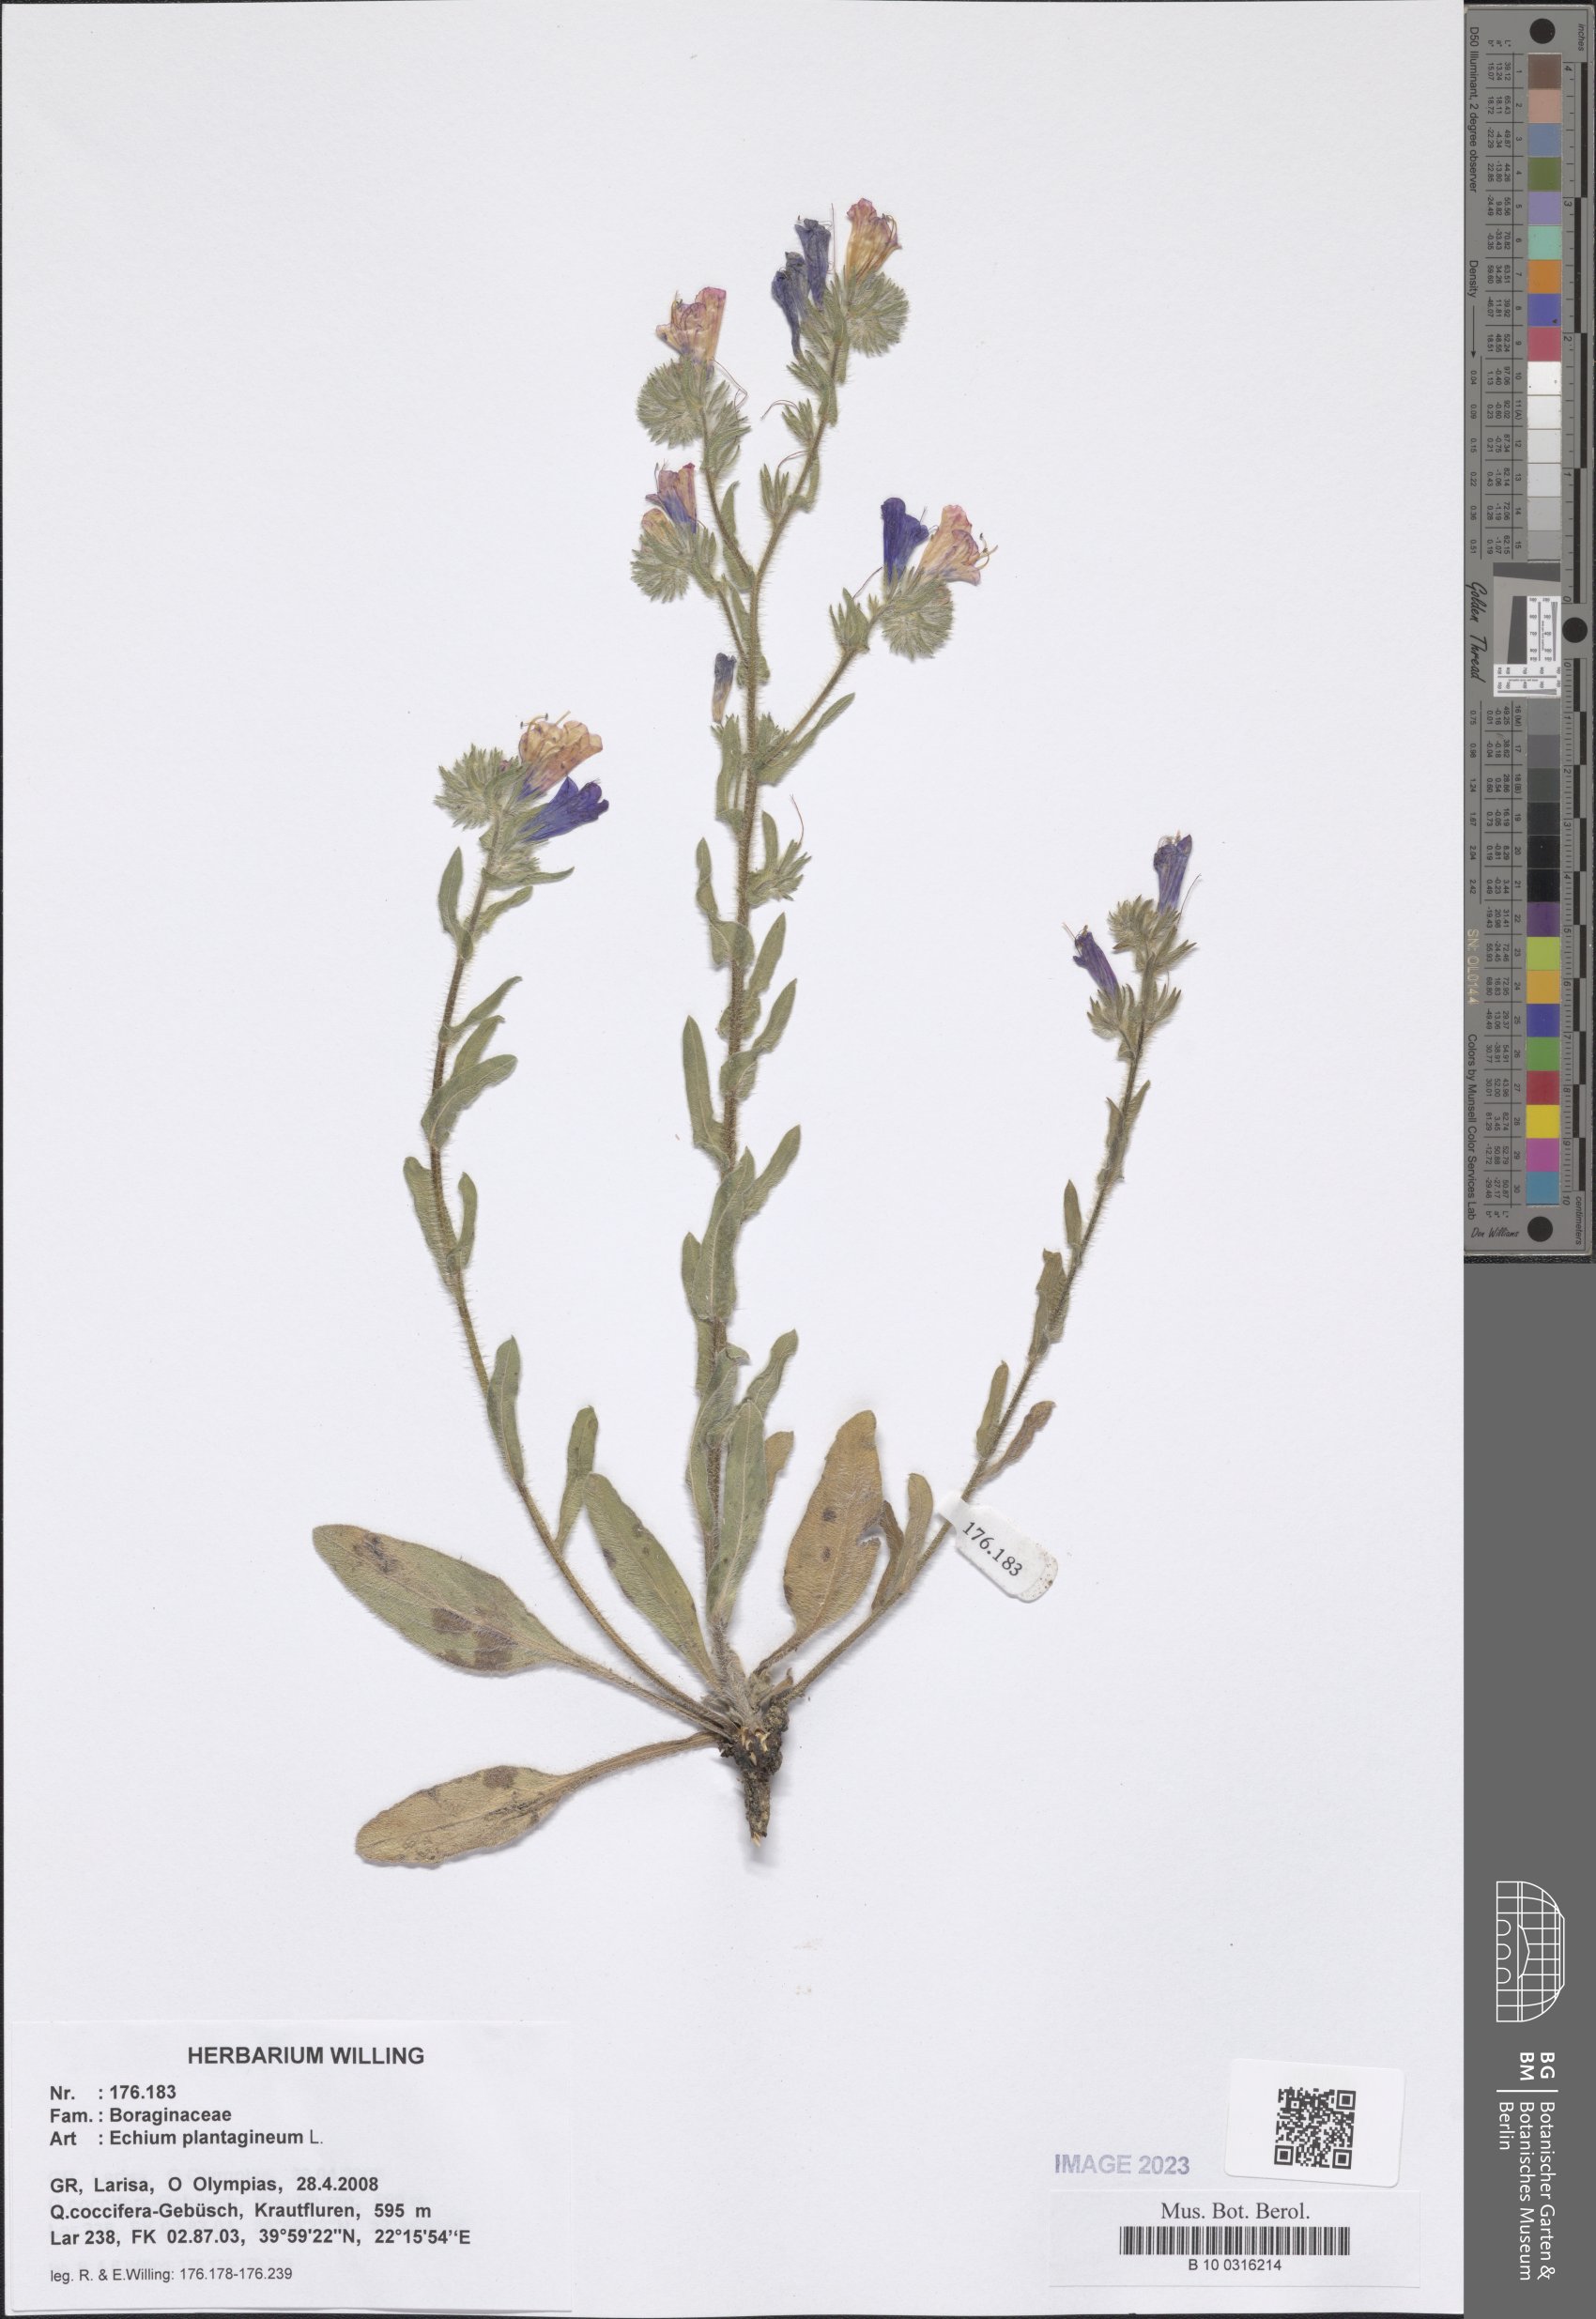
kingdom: Plantae
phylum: Tracheophyta
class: Magnoliopsida
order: Boraginales
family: Boraginaceae
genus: Echium
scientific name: Echium plantagineum
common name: Purple viper's-bugloss
